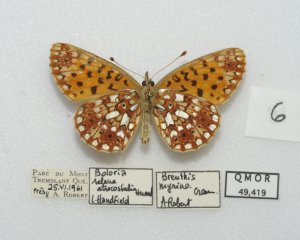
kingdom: Animalia
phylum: Arthropoda
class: Insecta
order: Lepidoptera
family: Nymphalidae
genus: Boloria
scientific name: Boloria selene
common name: Silver-bordered Fritillary
